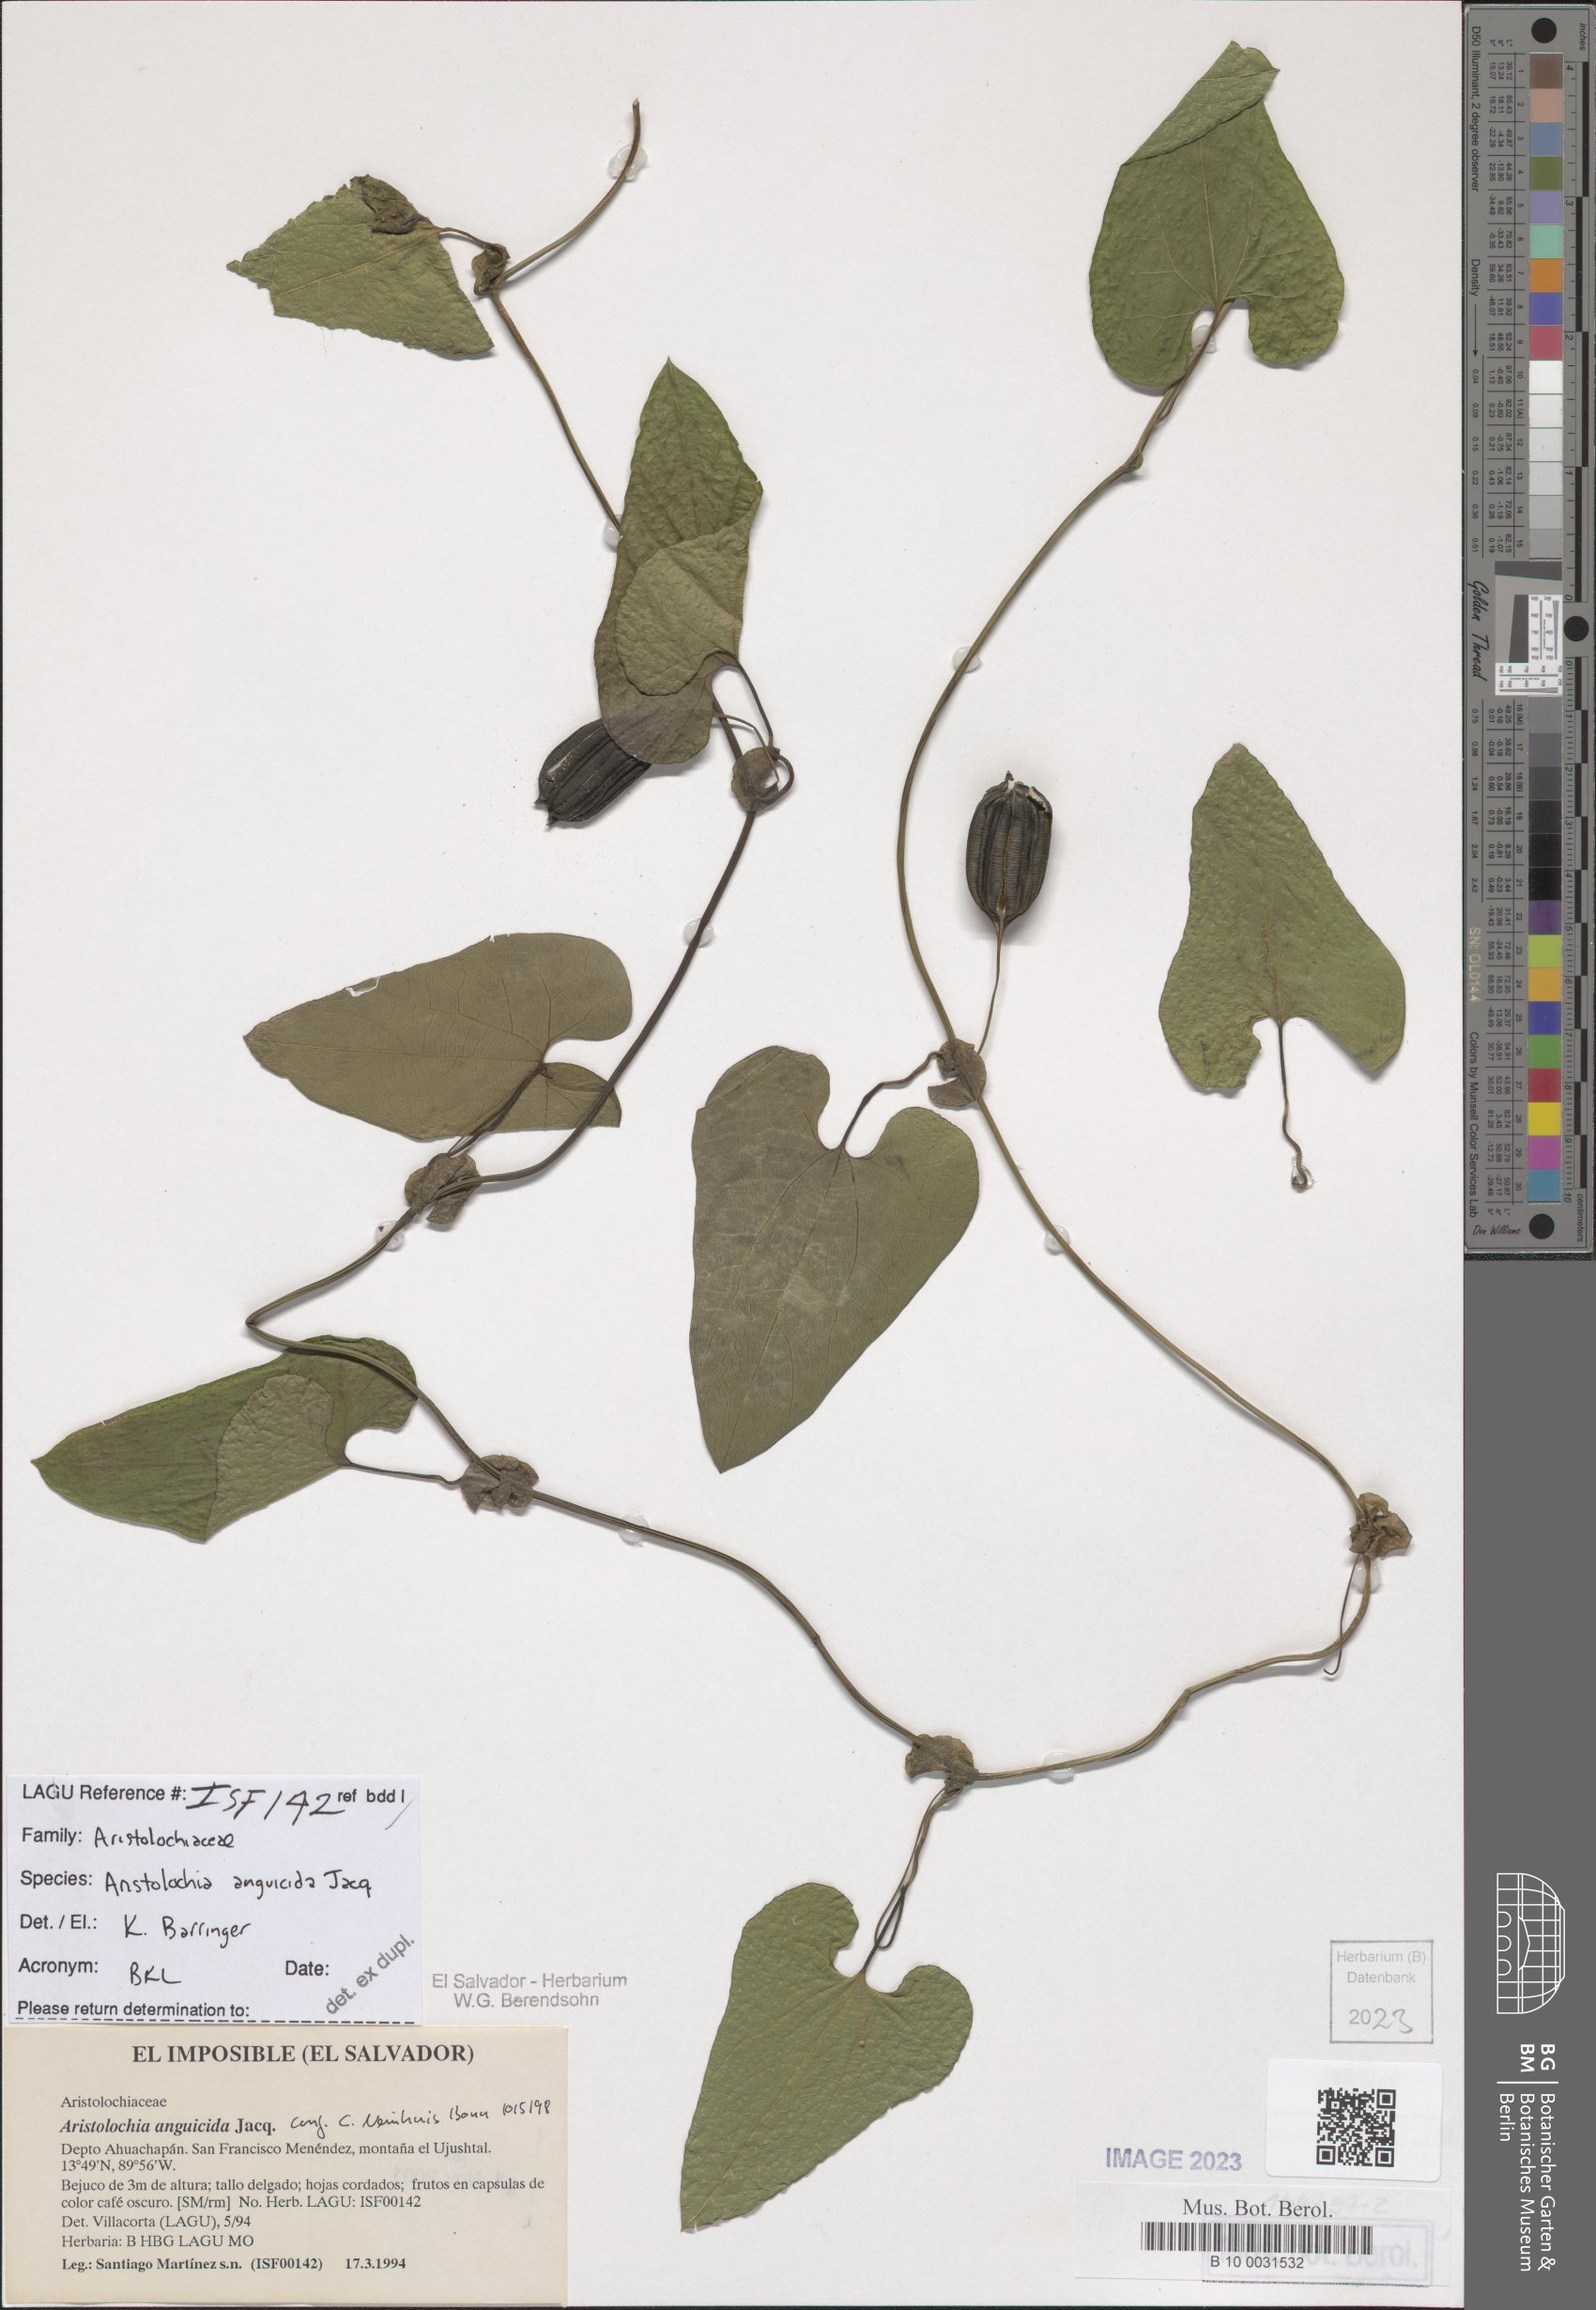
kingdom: Plantae
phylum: Tracheophyta
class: Magnoliopsida
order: Piperales
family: Aristolochiaceae
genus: Aristolochia
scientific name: Aristolochia anguicida
